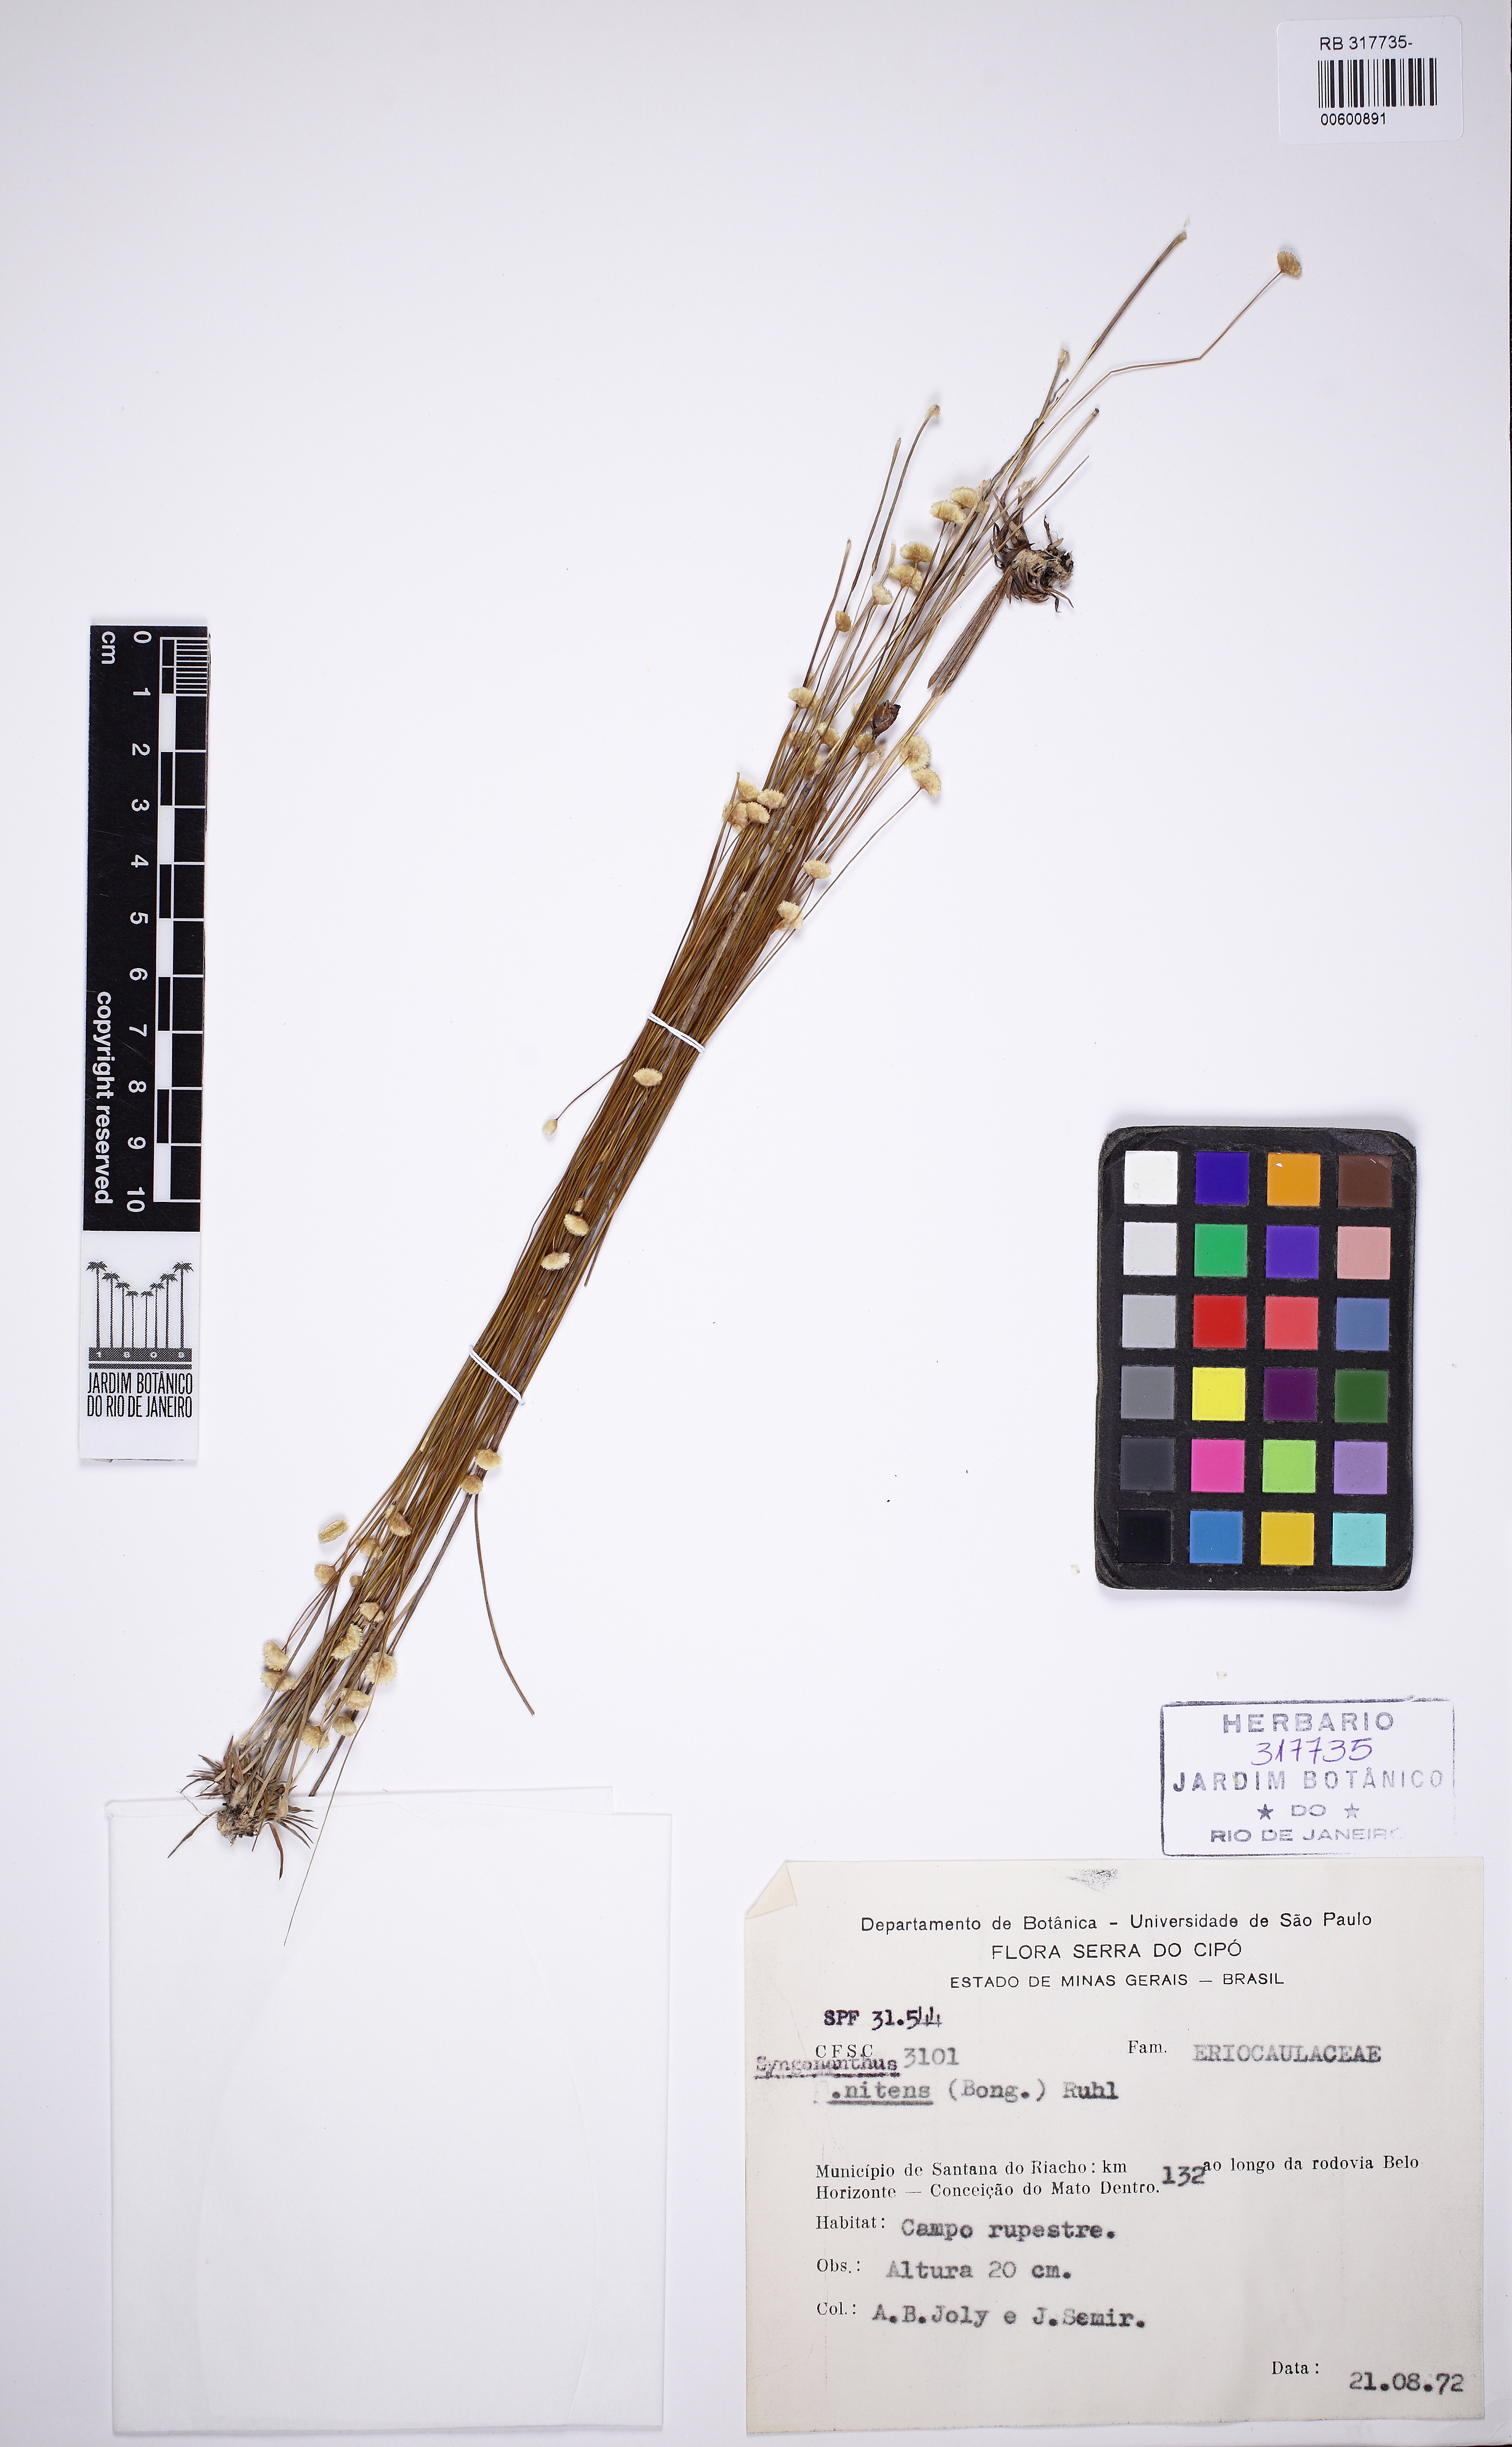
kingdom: Plantae
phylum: Tracheophyta
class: Liliopsida
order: Poales
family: Eriocaulaceae
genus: Syngonanthus
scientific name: Syngonanthus nitens
